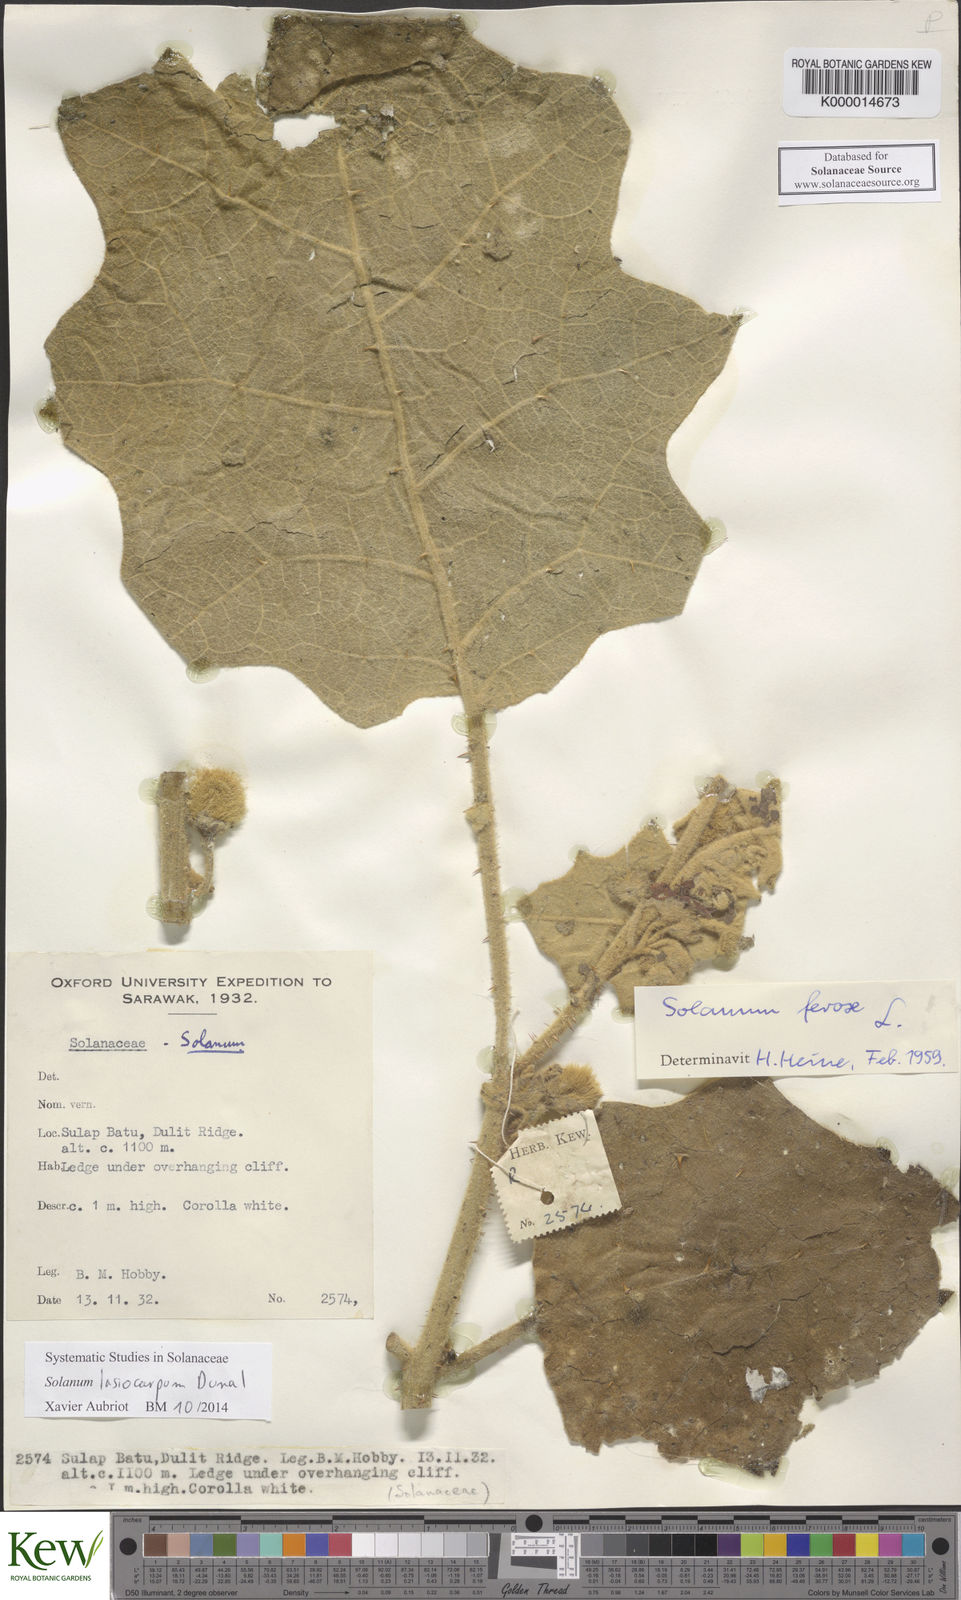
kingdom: Plantae
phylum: Tracheophyta
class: Magnoliopsida
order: Solanales
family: Solanaceae
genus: Solanum
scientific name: Solanum lasiocarpum
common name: Indian nightshade
